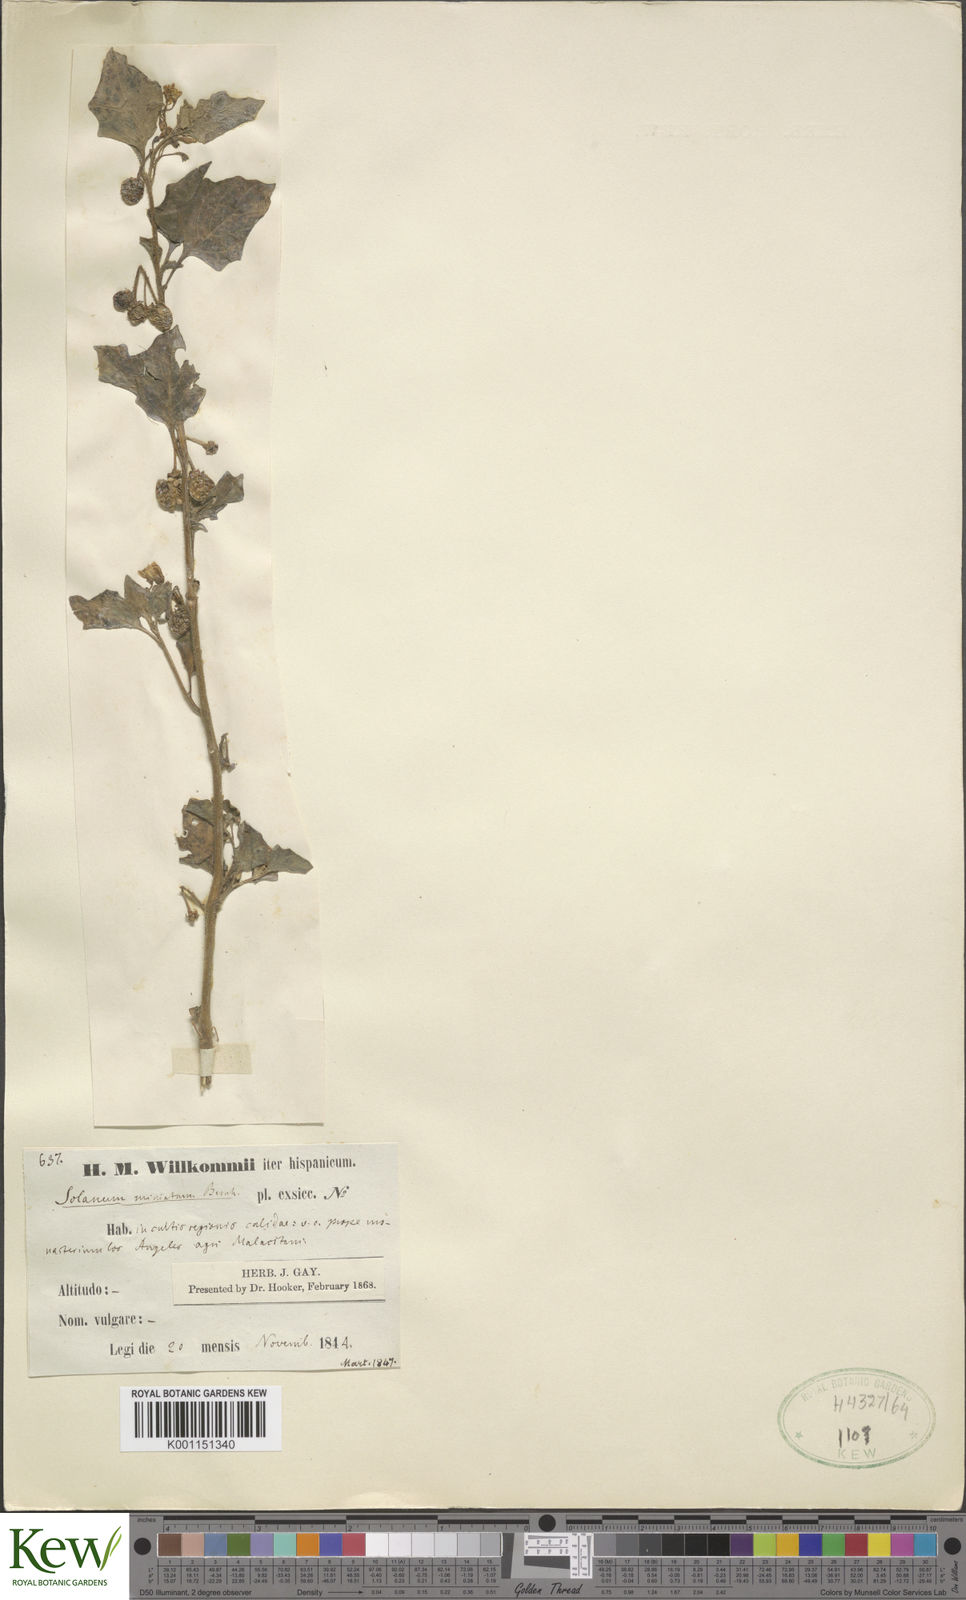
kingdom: Plantae
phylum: Tracheophyta
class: Magnoliopsida
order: Solanales
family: Solanaceae
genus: Solanum
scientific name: Solanum alatum
